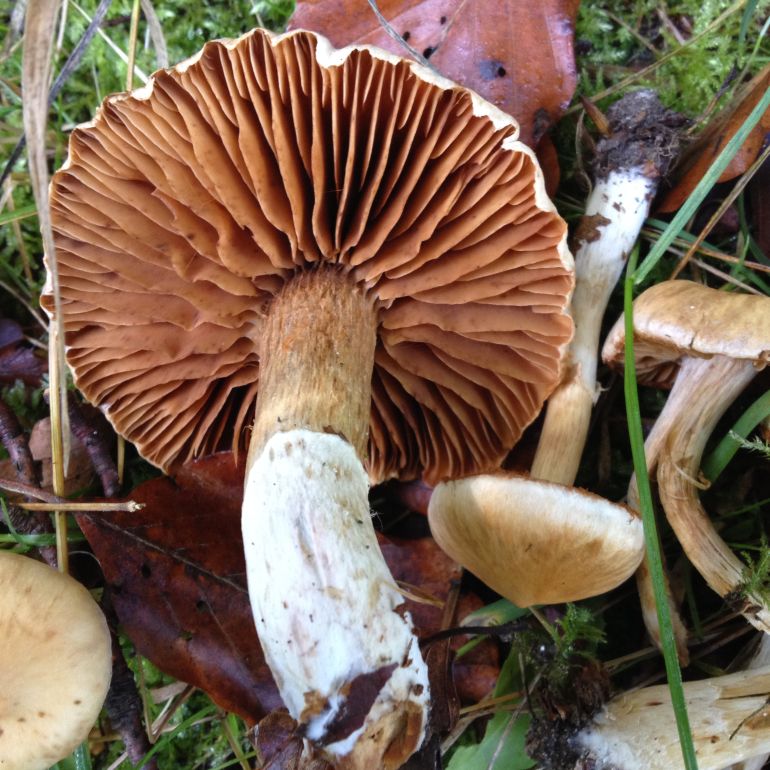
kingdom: Fungi
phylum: Basidiomycota
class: Agaricomycetes
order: Agaricales
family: Cortinariaceae
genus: Cortinarius
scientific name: Cortinarius
